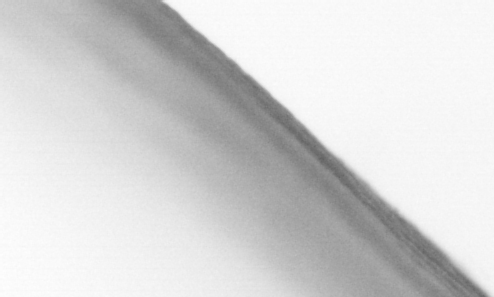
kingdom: Animalia
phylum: Chordata
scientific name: Chordata
